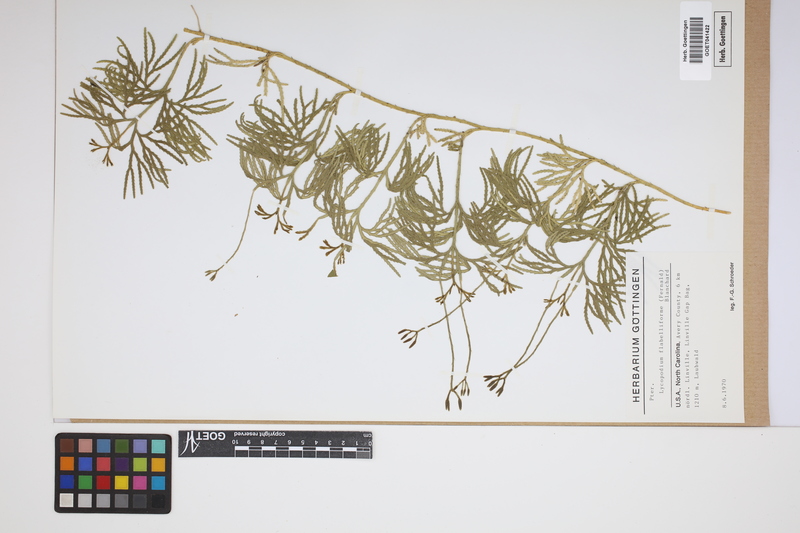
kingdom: Plantae
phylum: Tracheophyta
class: Lycopodiopsida
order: Lycopodiales
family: Lycopodiaceae
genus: Diphasiastrum
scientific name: Diphasiastrum digitatum
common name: Southern running-pine
